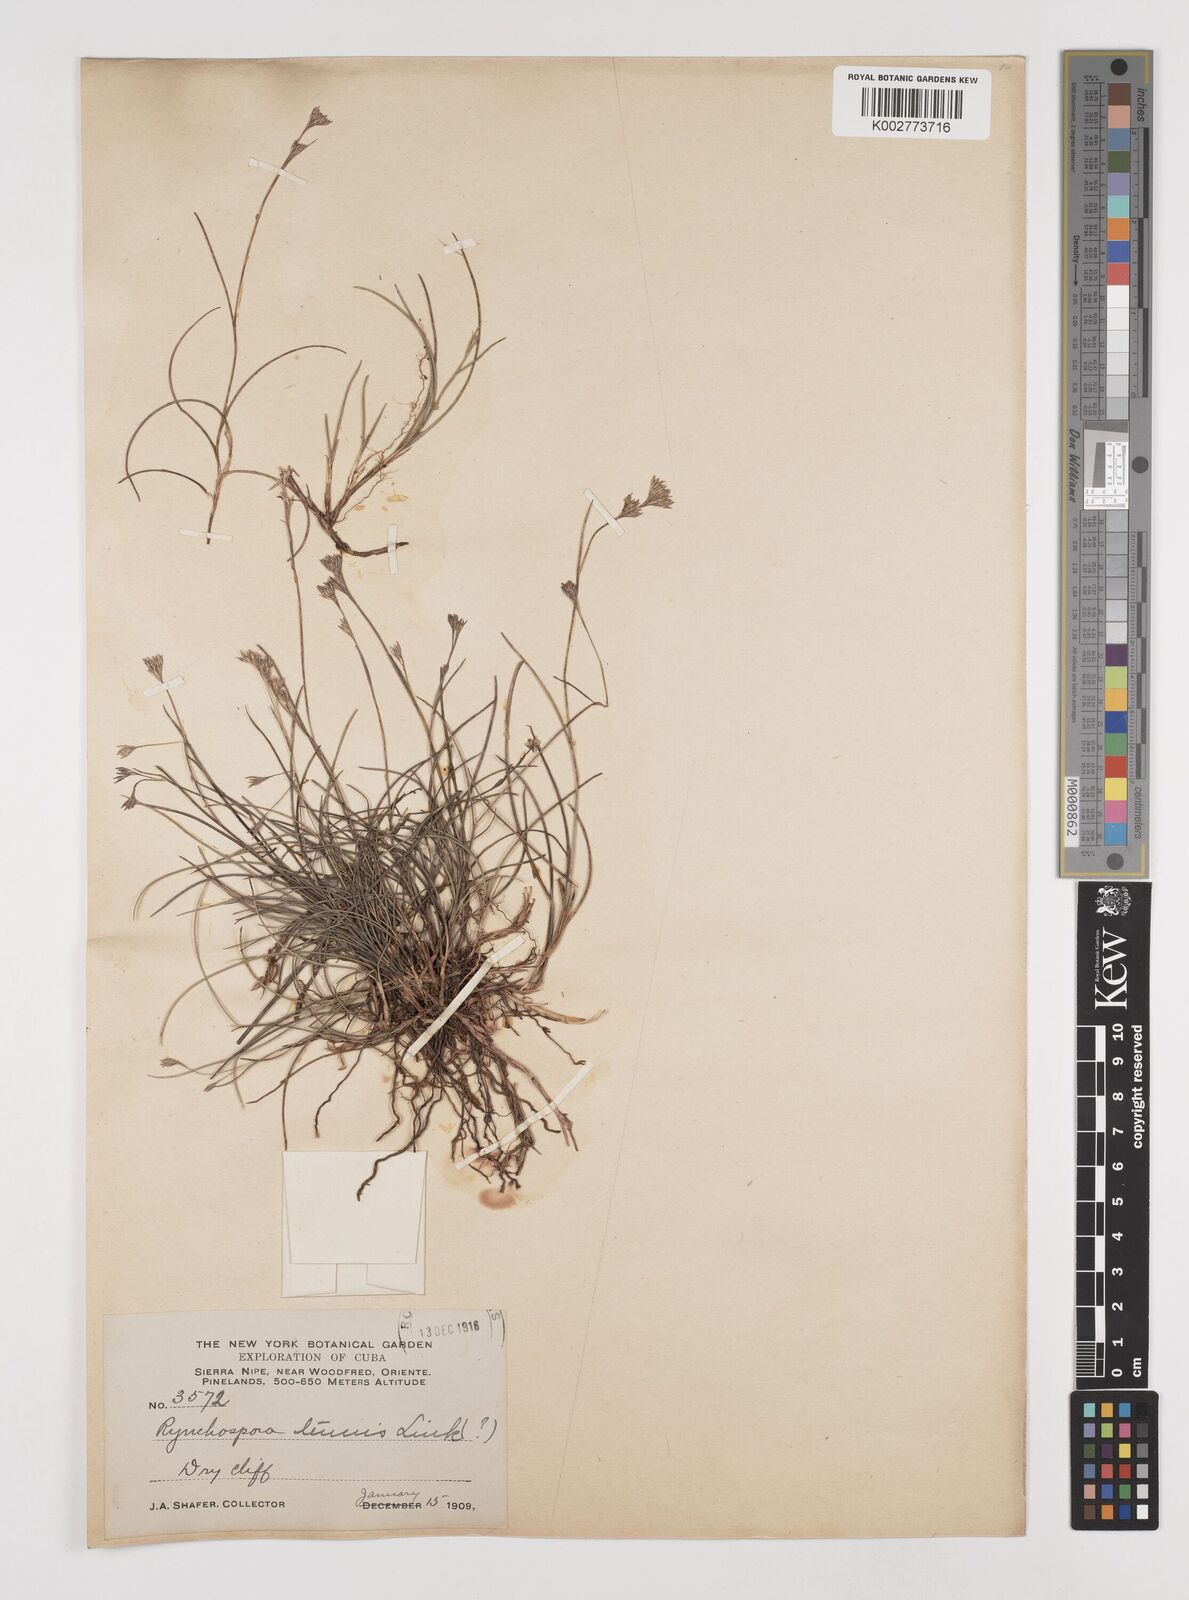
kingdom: Plantae
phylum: Tracheophyta
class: Liliopsida
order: Poales
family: Cyperaceae
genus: Rhynchospora
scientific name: Rhynchospora tenuis
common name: Quill beaksedge
